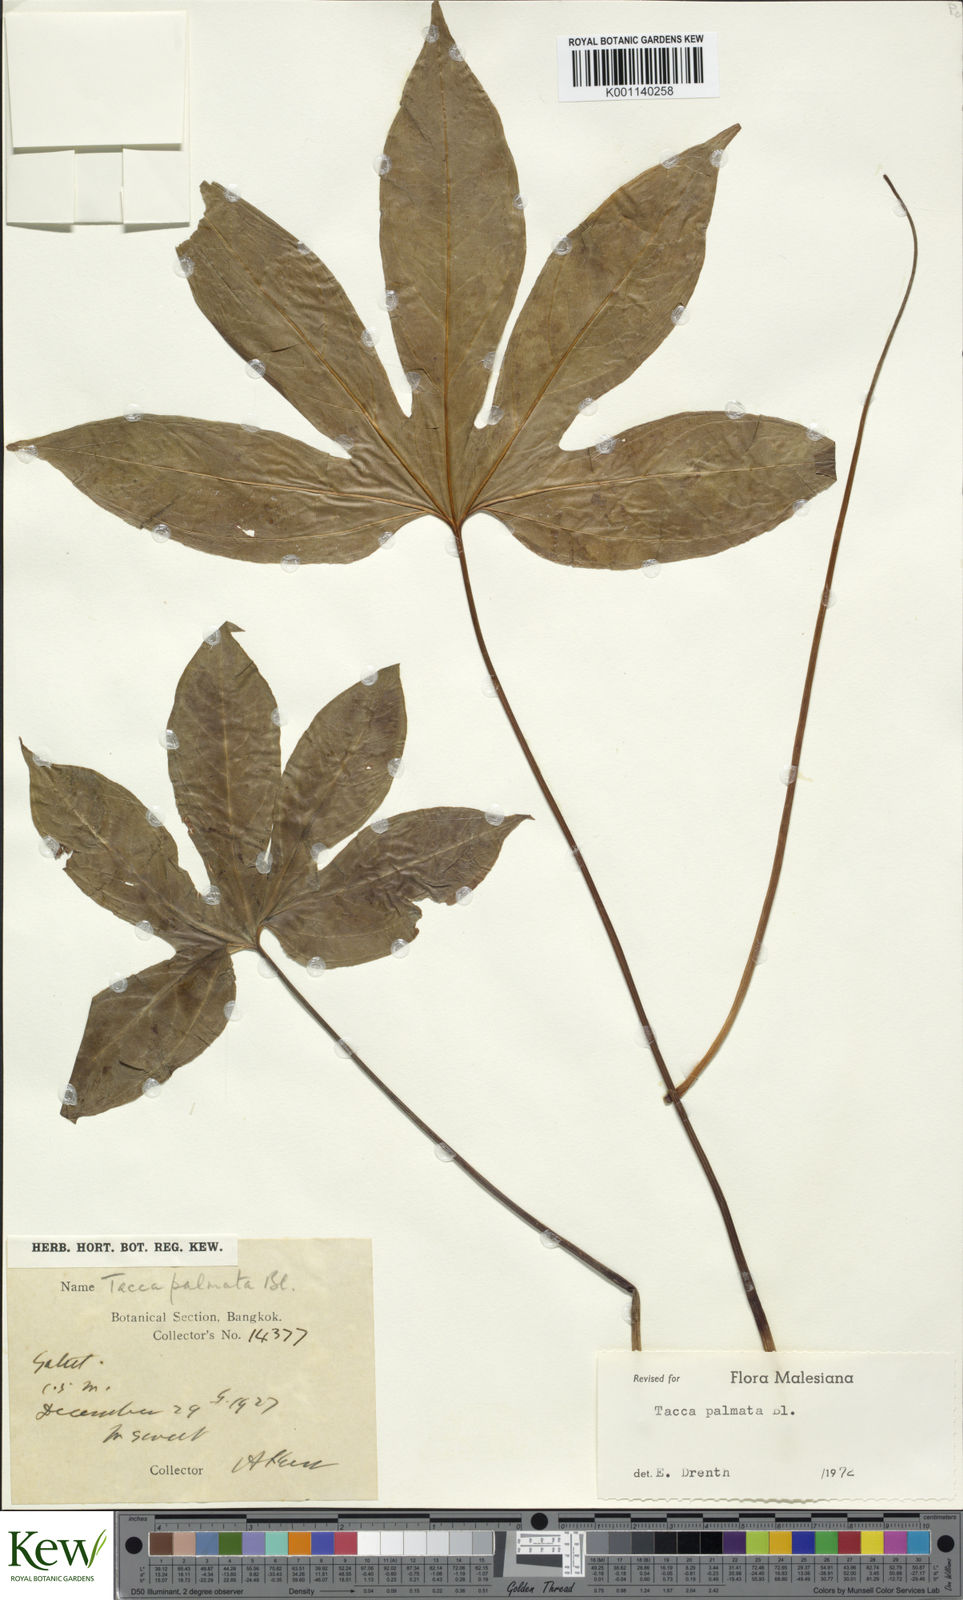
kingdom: Plantae
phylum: Tracheophyta
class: Liliopsida
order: Dioscoreales
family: Dioscoreaceae
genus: Tacca
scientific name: Tacca palmata
